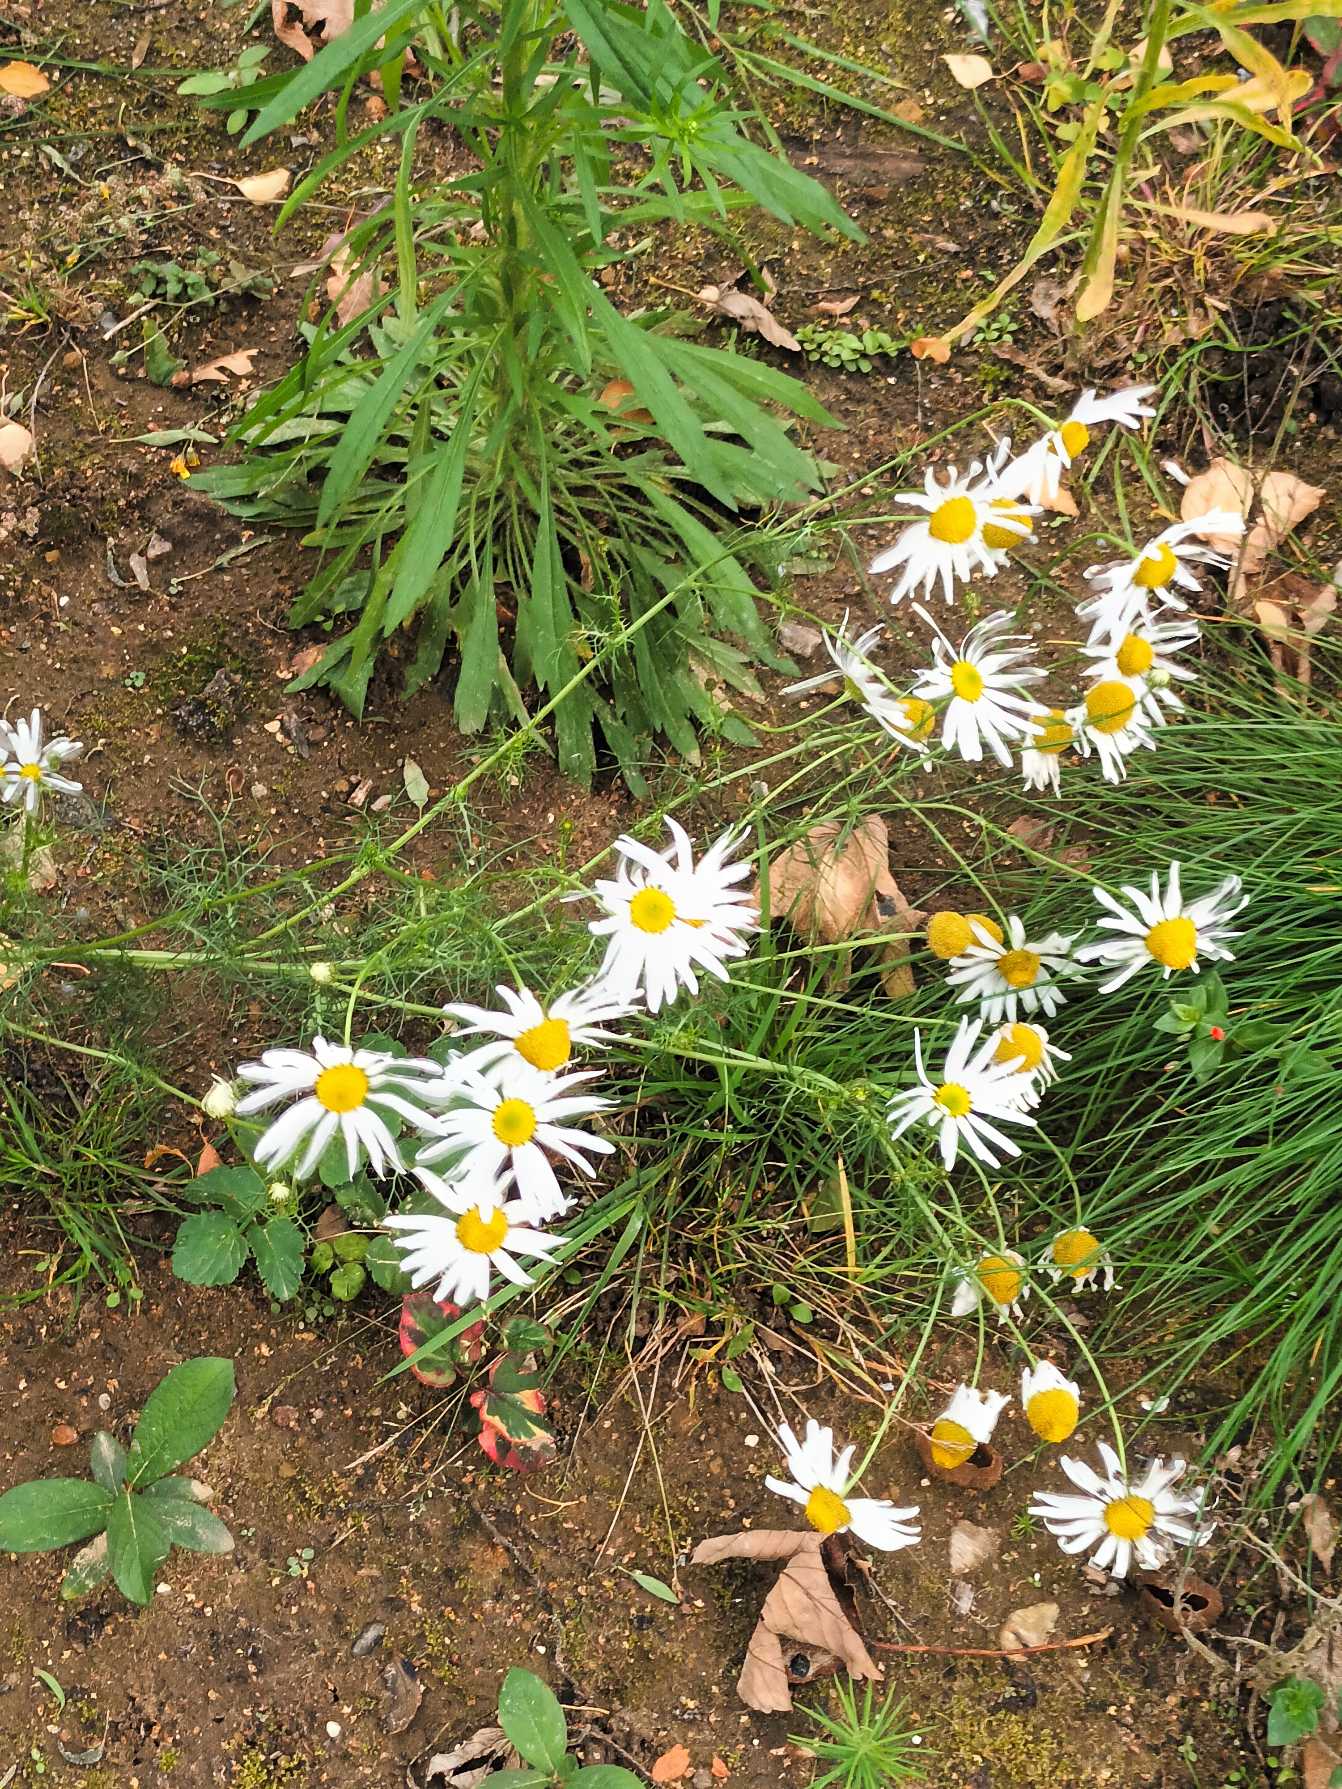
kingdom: Plantae
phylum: Tracheophyta
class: Magnoliopsida
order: Asterales
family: Asteraceae
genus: Tripleurospermum
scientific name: Tripleurospermum inodorum
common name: Lugtløs kamille
